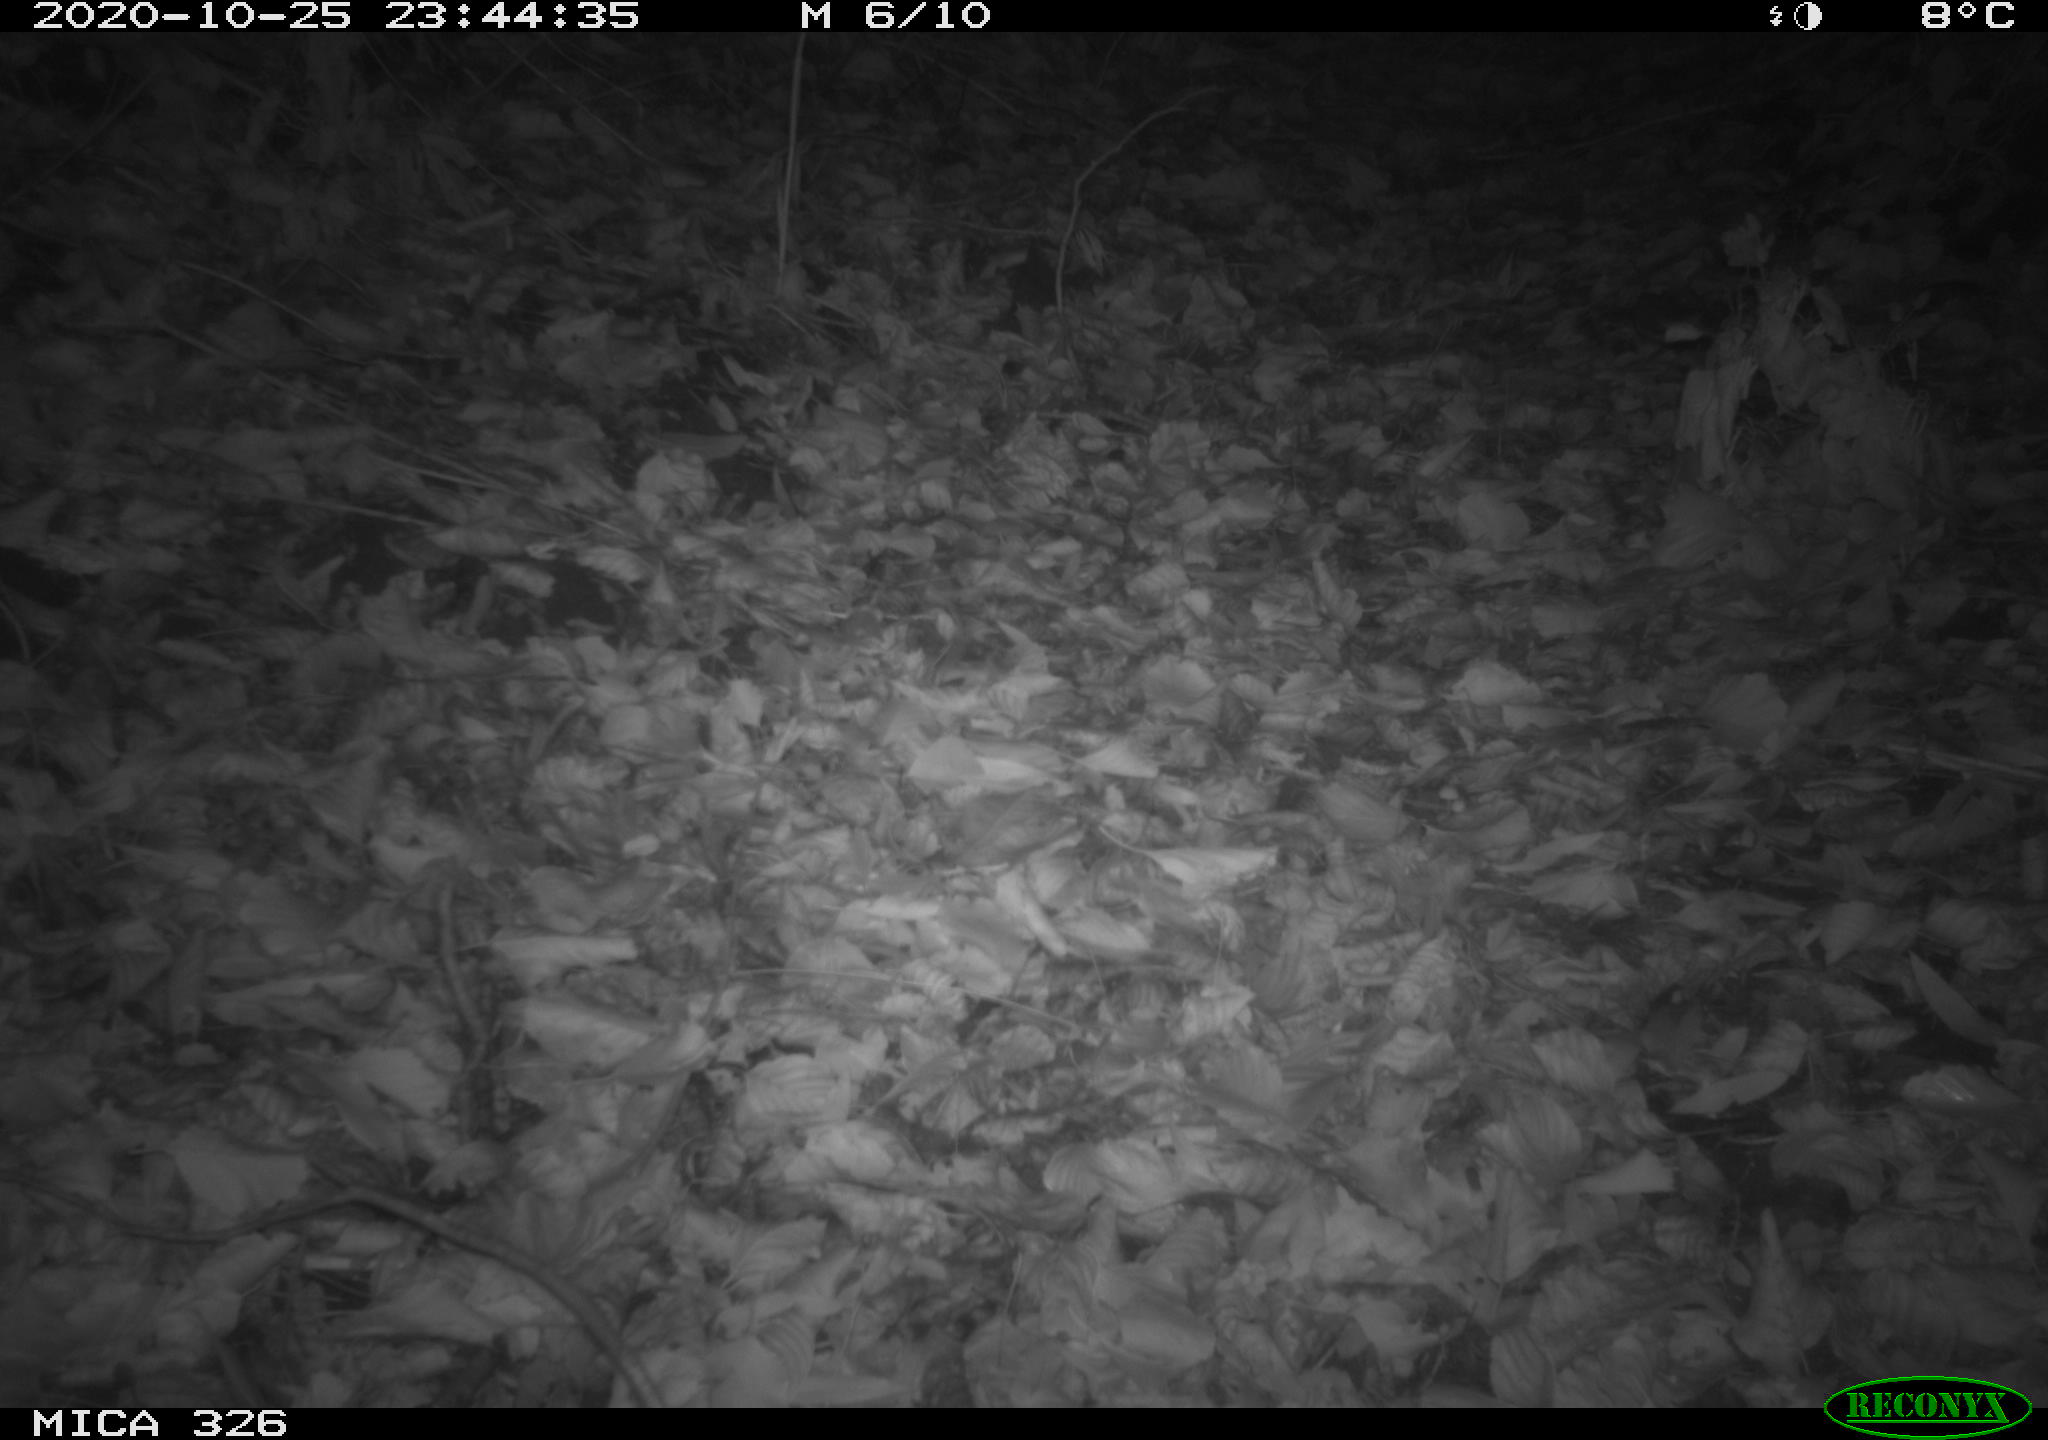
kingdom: Animalia
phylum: Chordata
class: Mammalia
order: Rodentia
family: Muridae
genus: Rattus
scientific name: Rattus norvegicus
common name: Brown rat
